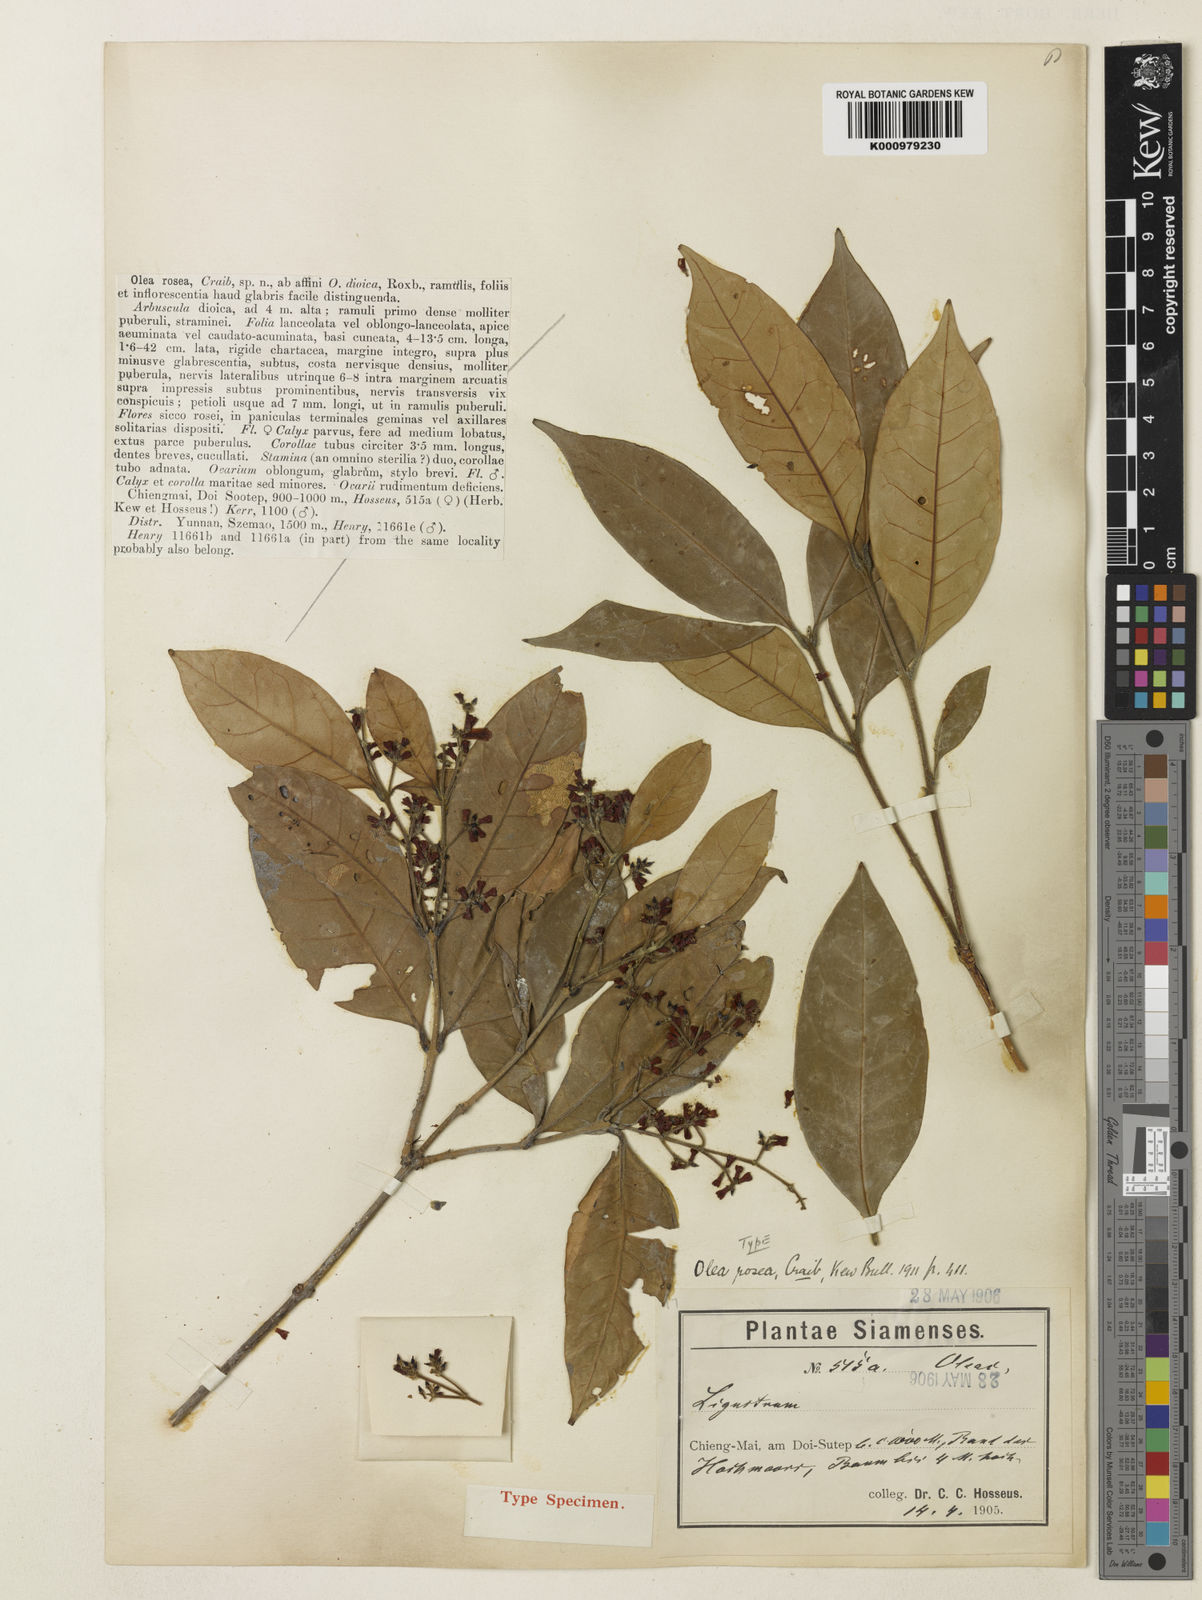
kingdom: Plantae
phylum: Tracheophyta
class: Magnoliopsida
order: Lamiales
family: Oleaceae
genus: Tetrapilus
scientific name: Tetrapilus roseus
